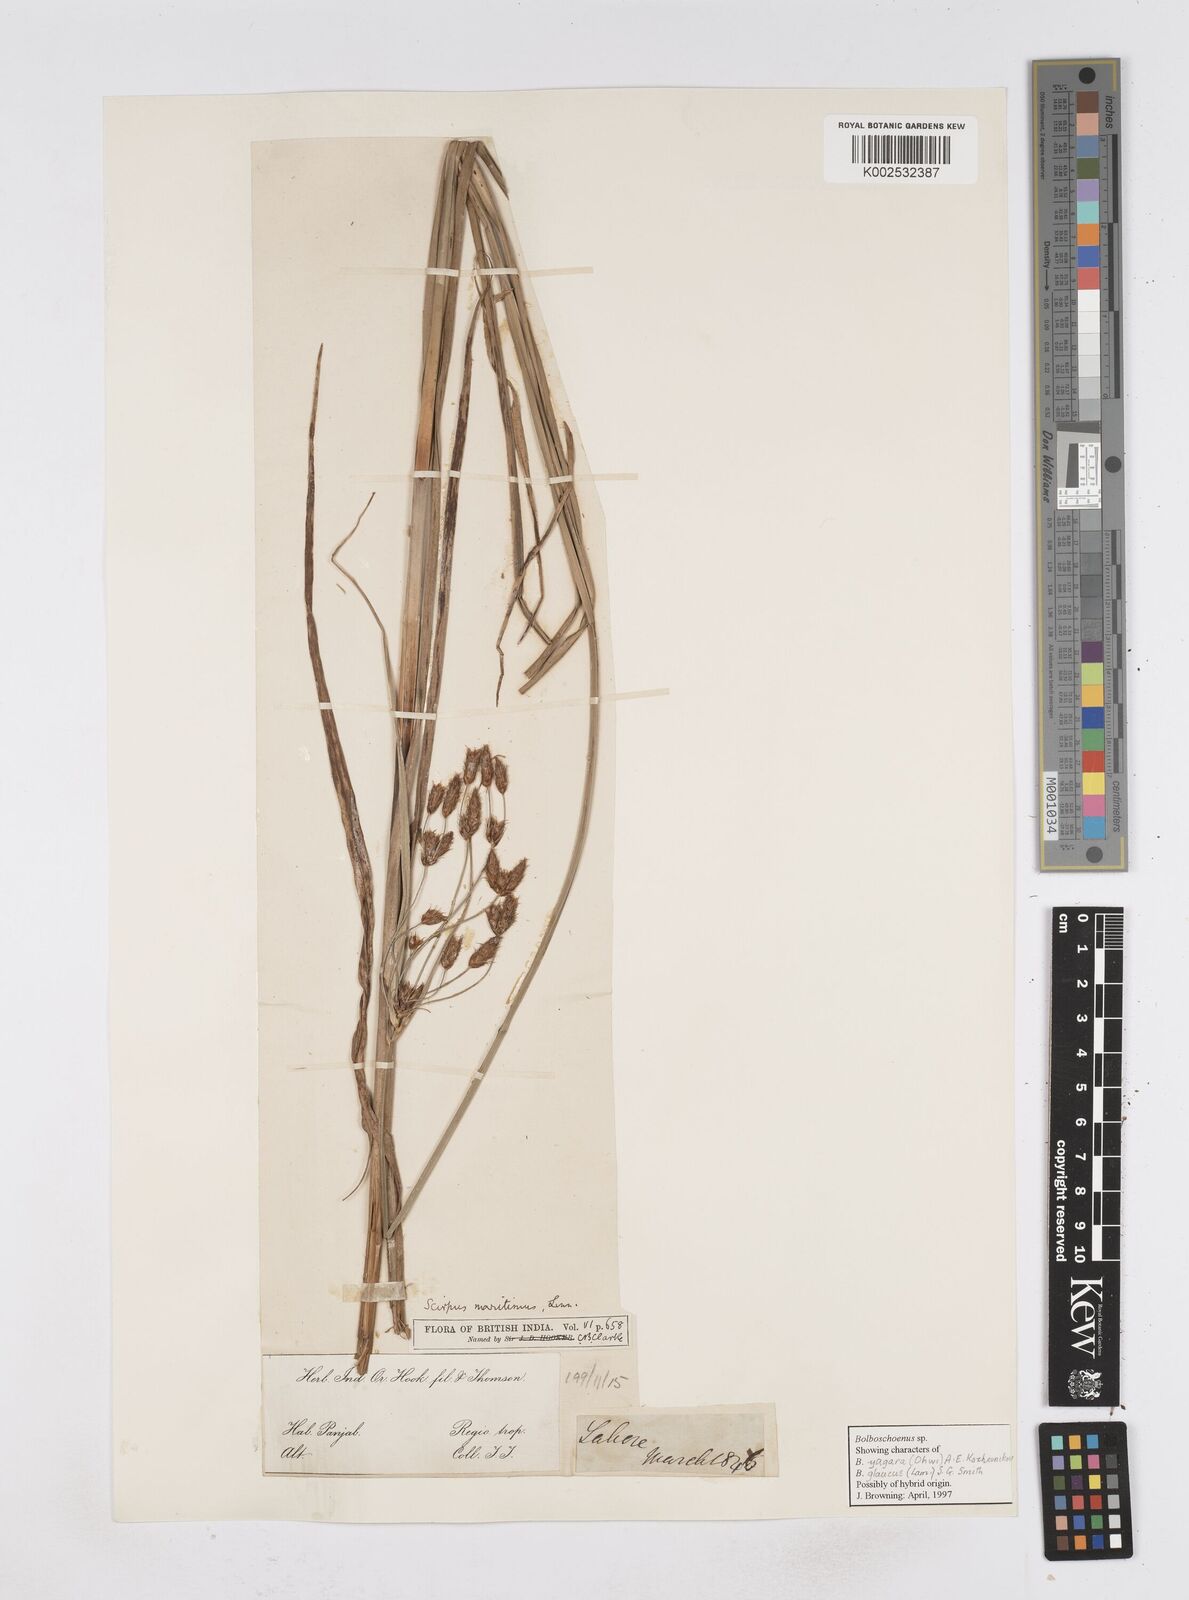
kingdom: Plantae
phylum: Tracheophyta
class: Liliopsida
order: Poales
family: Cyperaceae
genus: Bolboschoenus
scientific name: Bolboschoenus maritimus
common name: Sea club-rush
